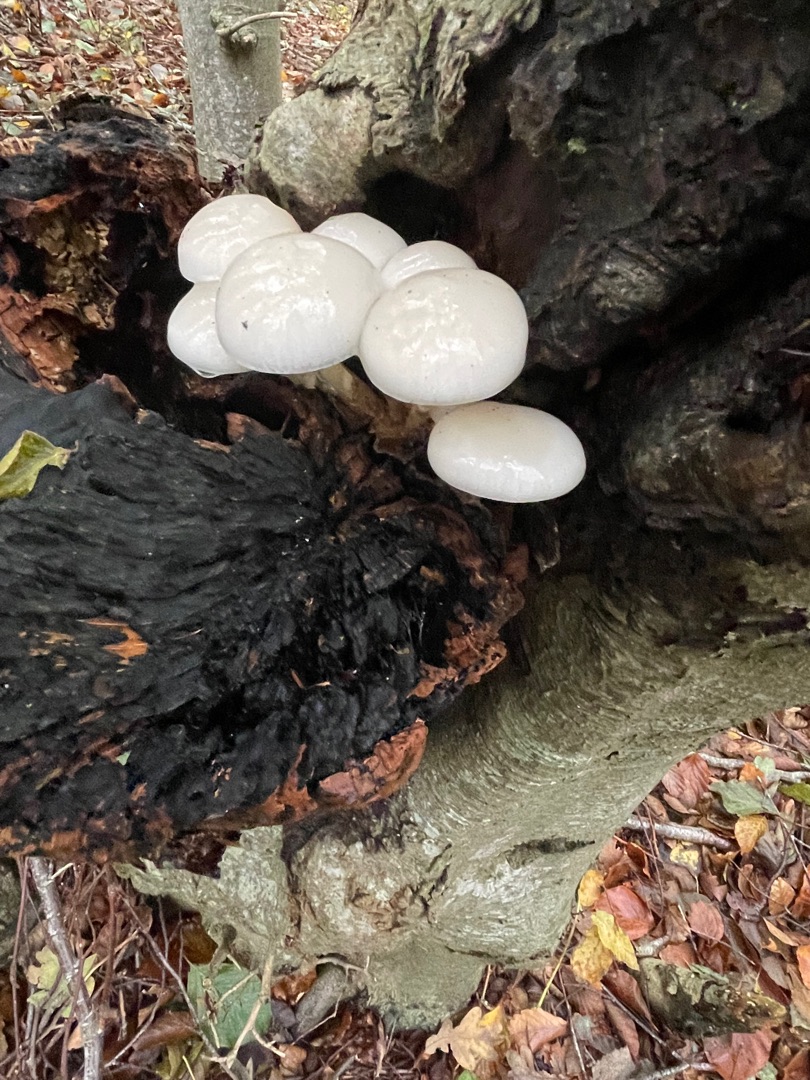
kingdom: Fungi
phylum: Basidiomycota
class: Agaricomycetes
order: Agaricales
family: Physalacriaceae
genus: Mucidula
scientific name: Mucidula mucida
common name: Porcelænshat
